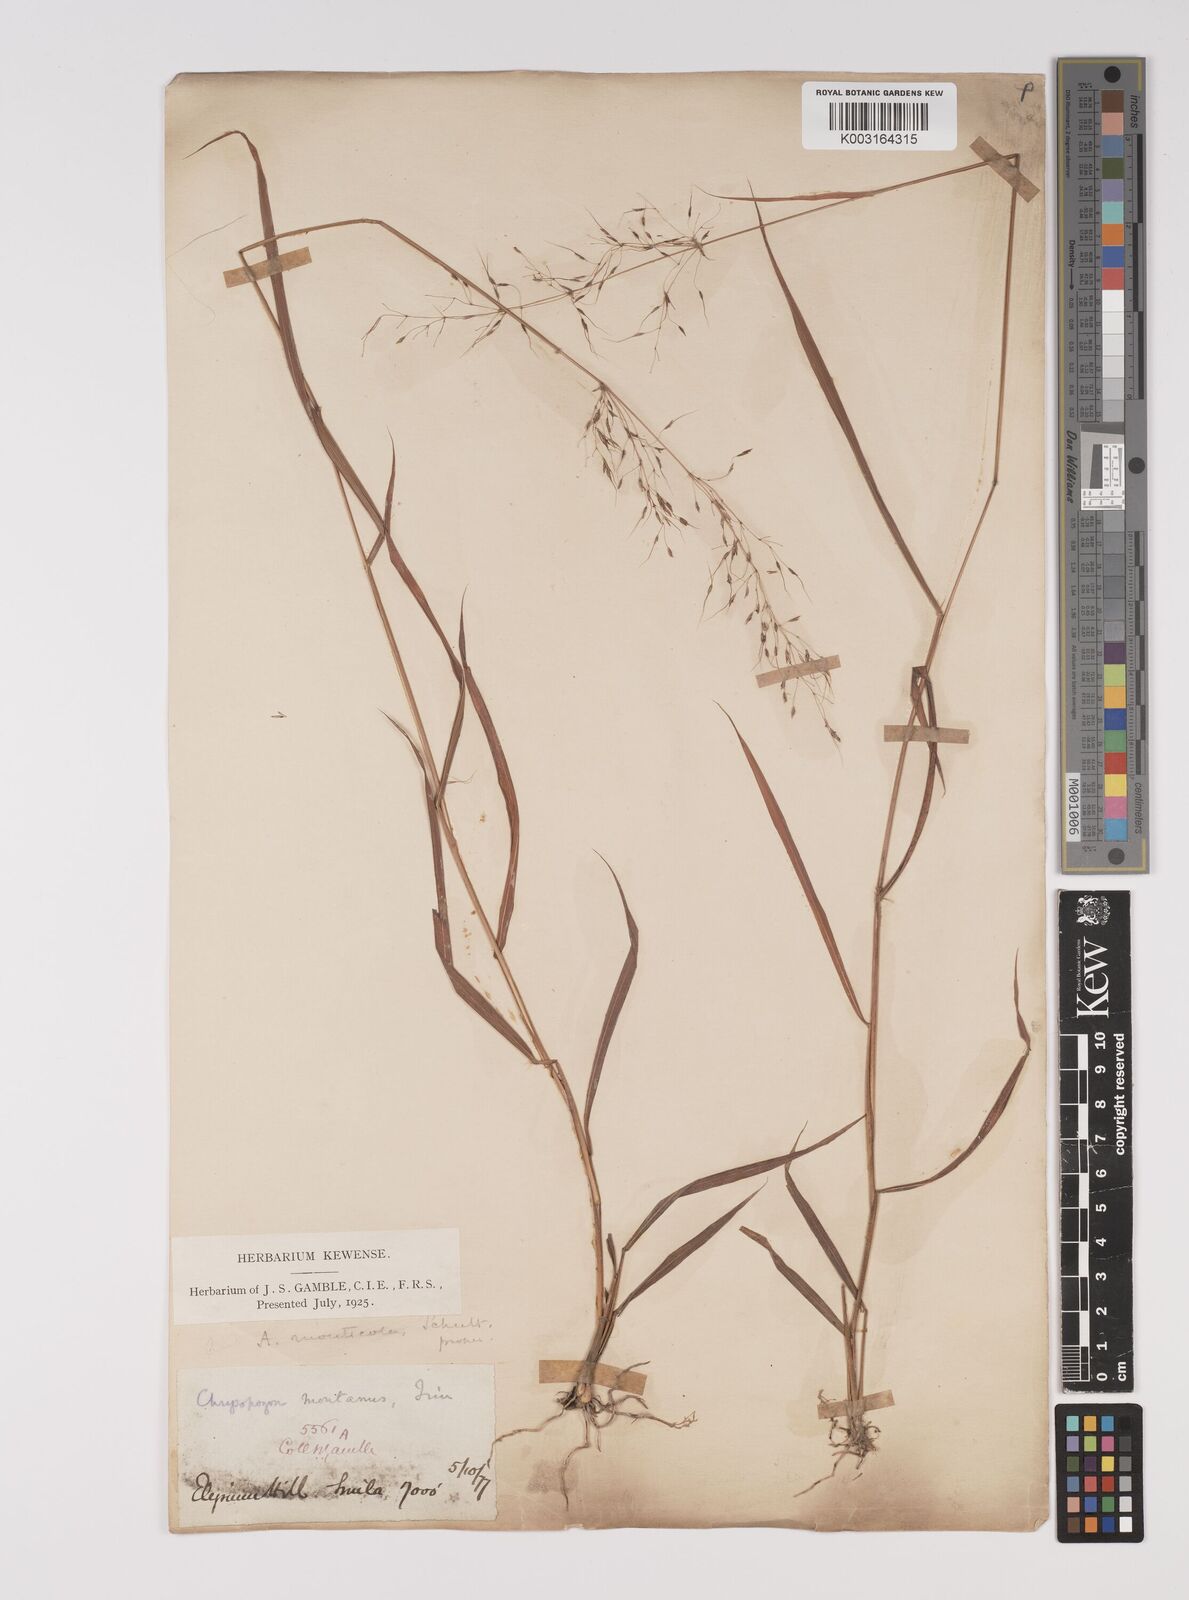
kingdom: Plantae
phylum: Tracheophyta
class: Liliopsida
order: Poales
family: Poaceae
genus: Capillipedium
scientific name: Capillipedium parviflorum
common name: Golden-beard
